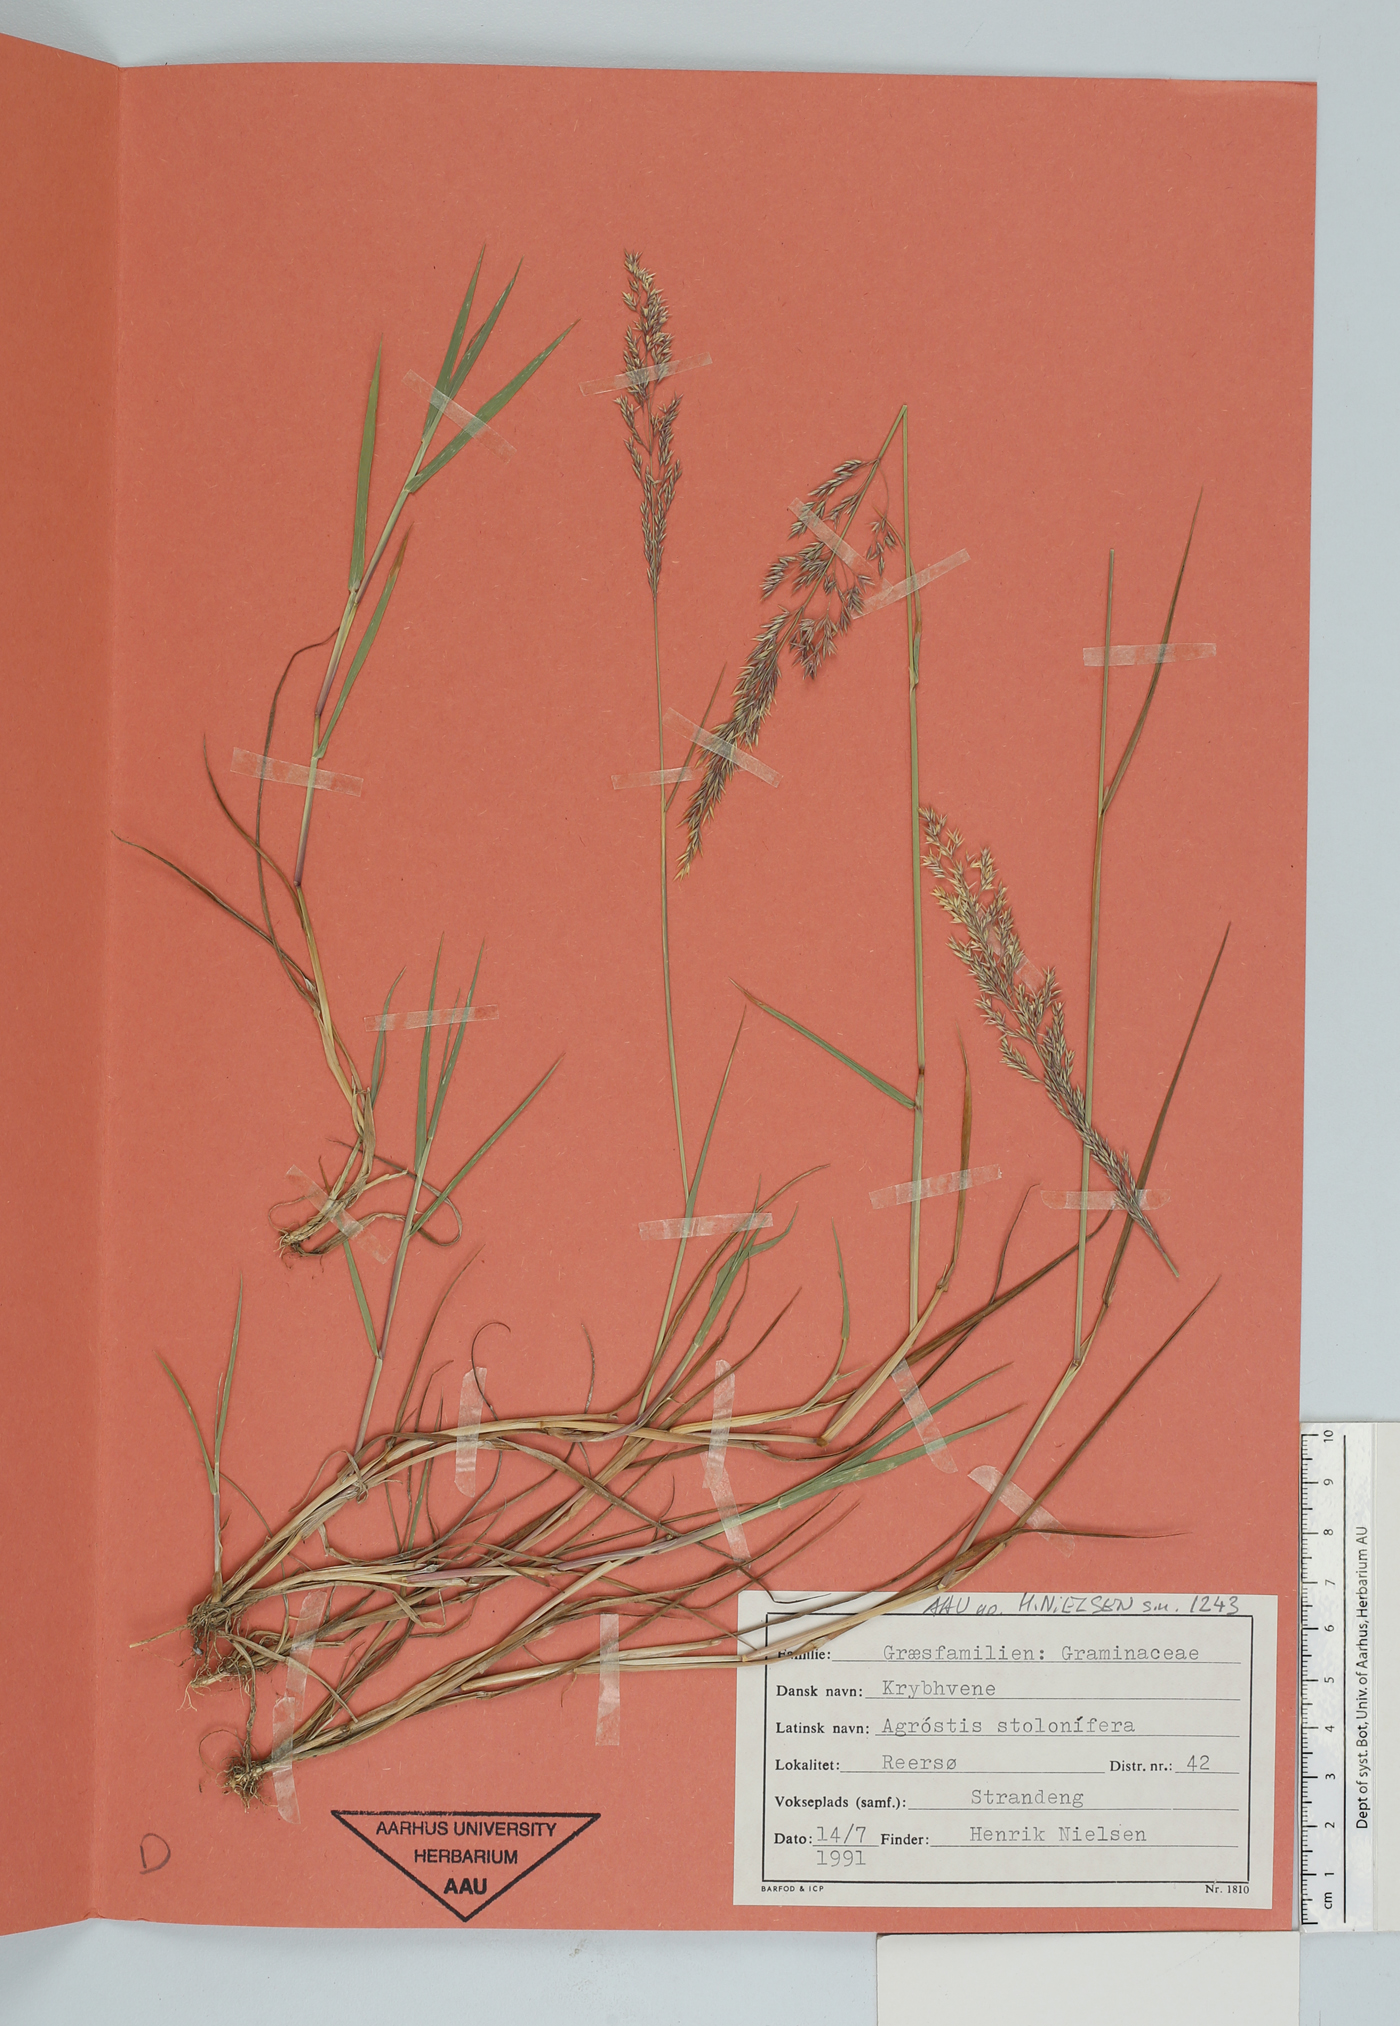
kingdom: Plantae
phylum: Tracheophyta
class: Liliopsida
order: Poales
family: Poaceae
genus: Agrostis
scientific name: Agrostis stolonifera
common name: Creeping bentgrass
